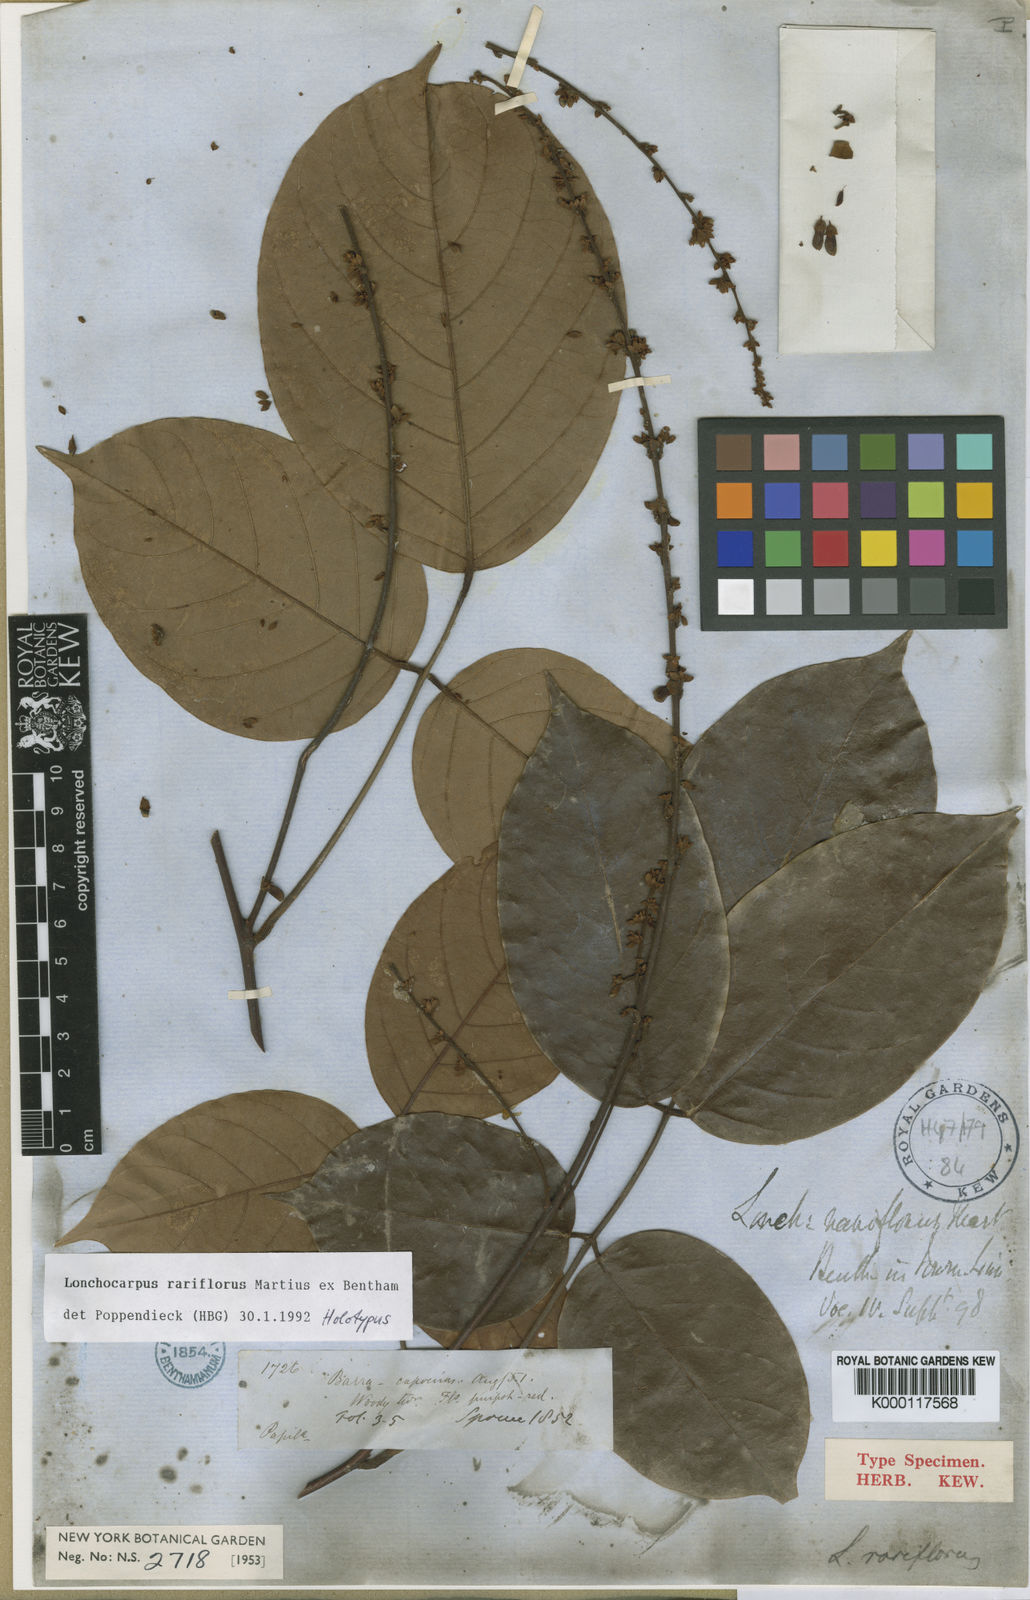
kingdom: Plantae
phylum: Tracheophyta
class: Magnoliopsida
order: Fabales
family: Fabaceae
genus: Deguelia
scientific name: Deguelia rariflora
